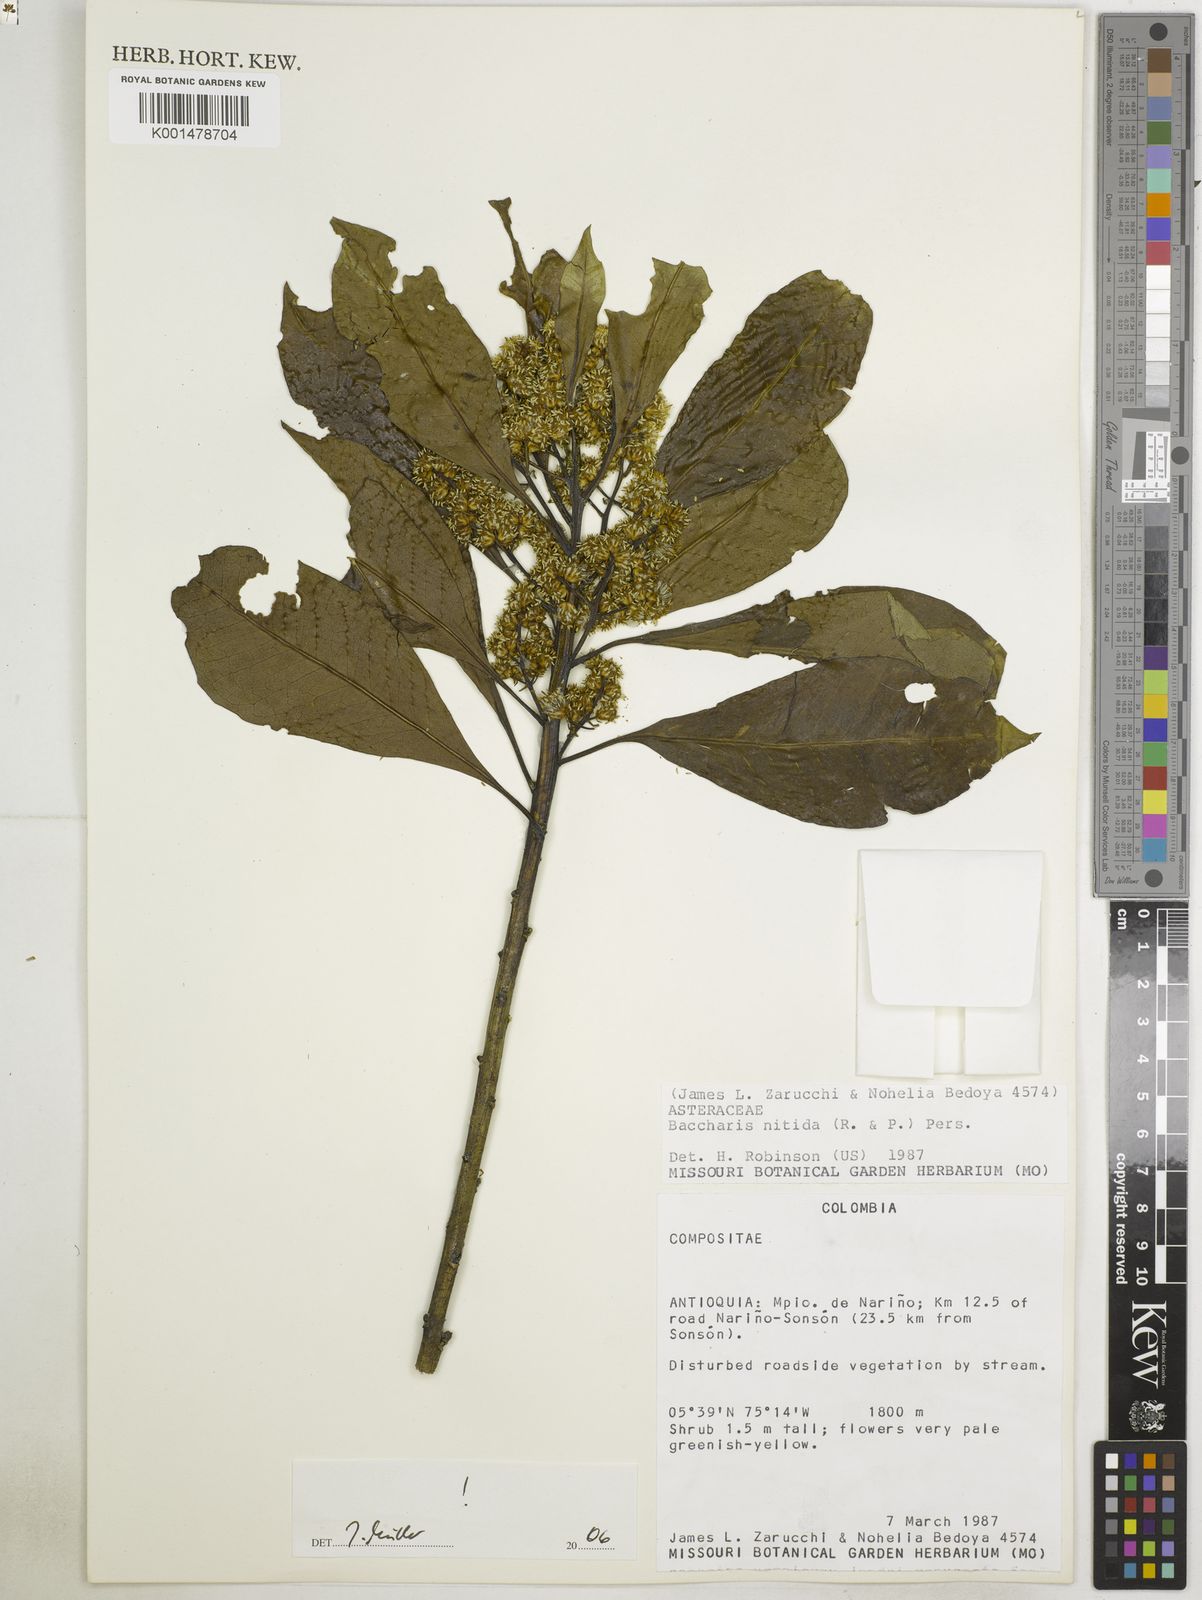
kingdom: Plantae
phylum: Tracheophyta
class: Magnoliopsida
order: Asterales
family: Asteraceae
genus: Blumea
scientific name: Blumea riparia
